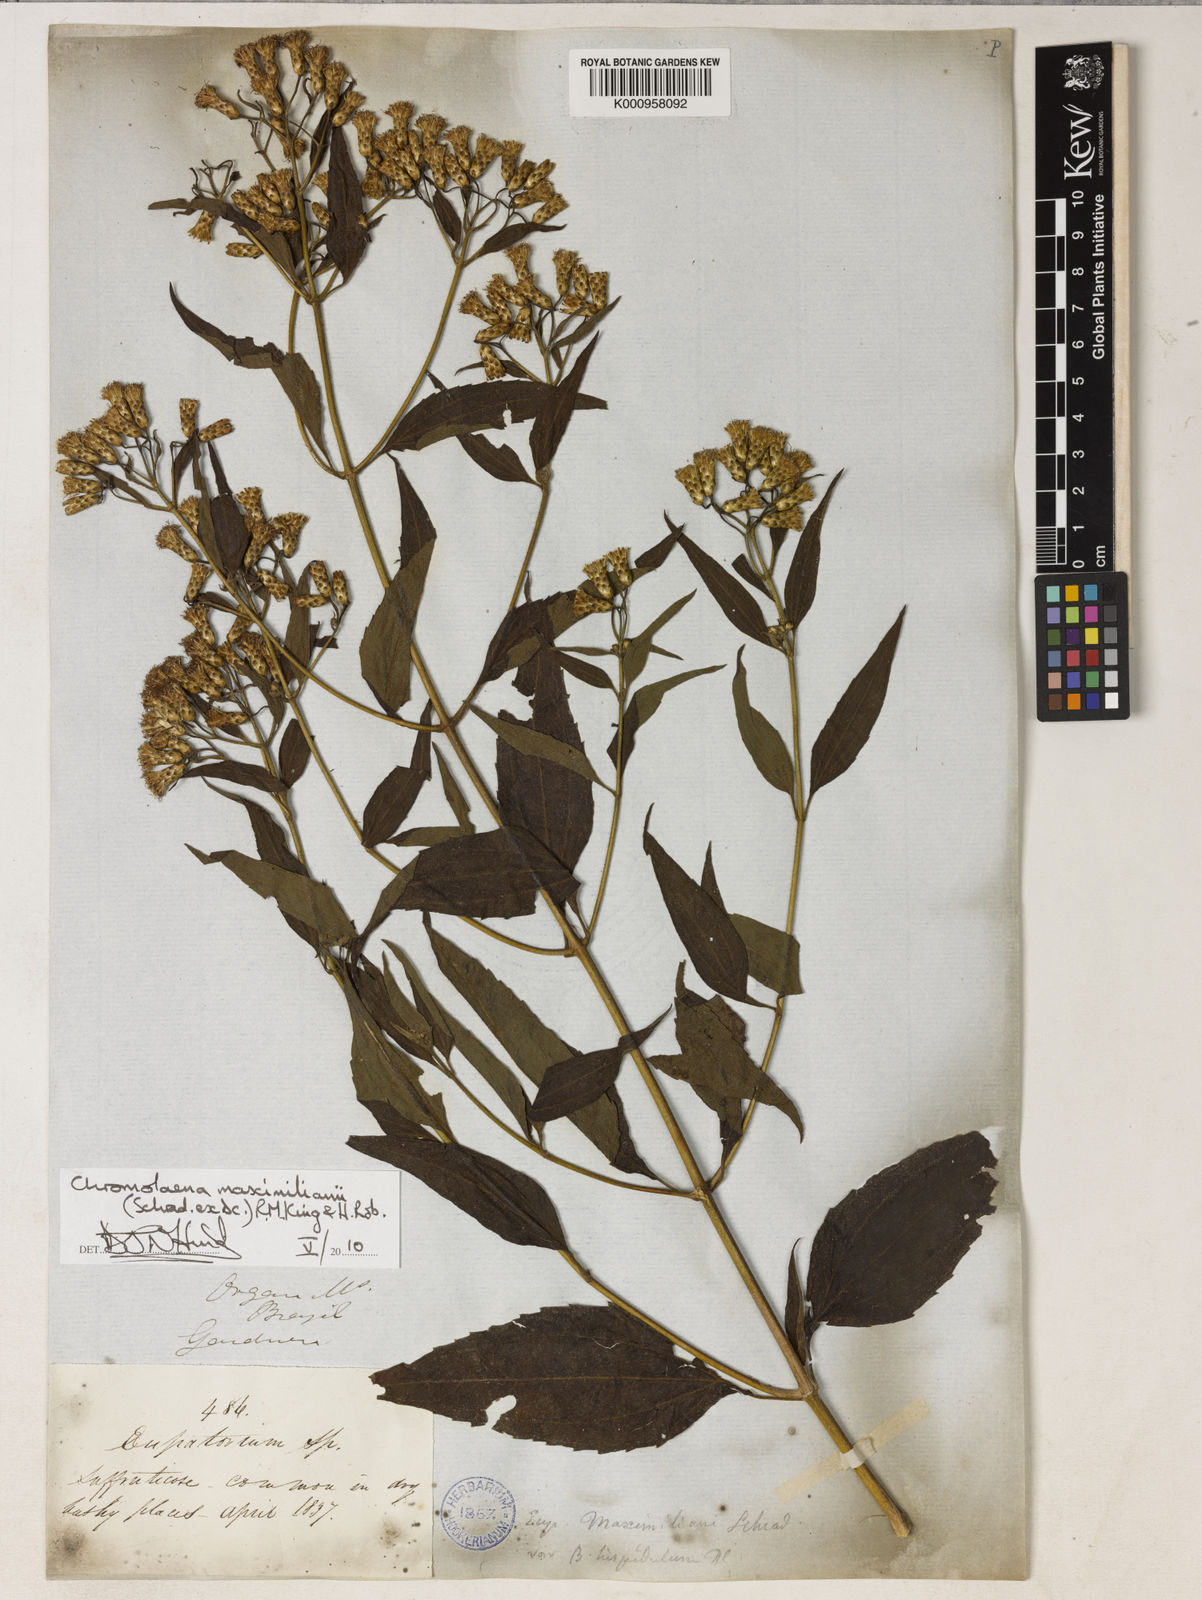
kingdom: Plantae
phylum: Tracheophyta
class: Magnoliopsida
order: Asterales
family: Asteraceae
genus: Chromolaena
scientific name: Chromolaena maximiliani
